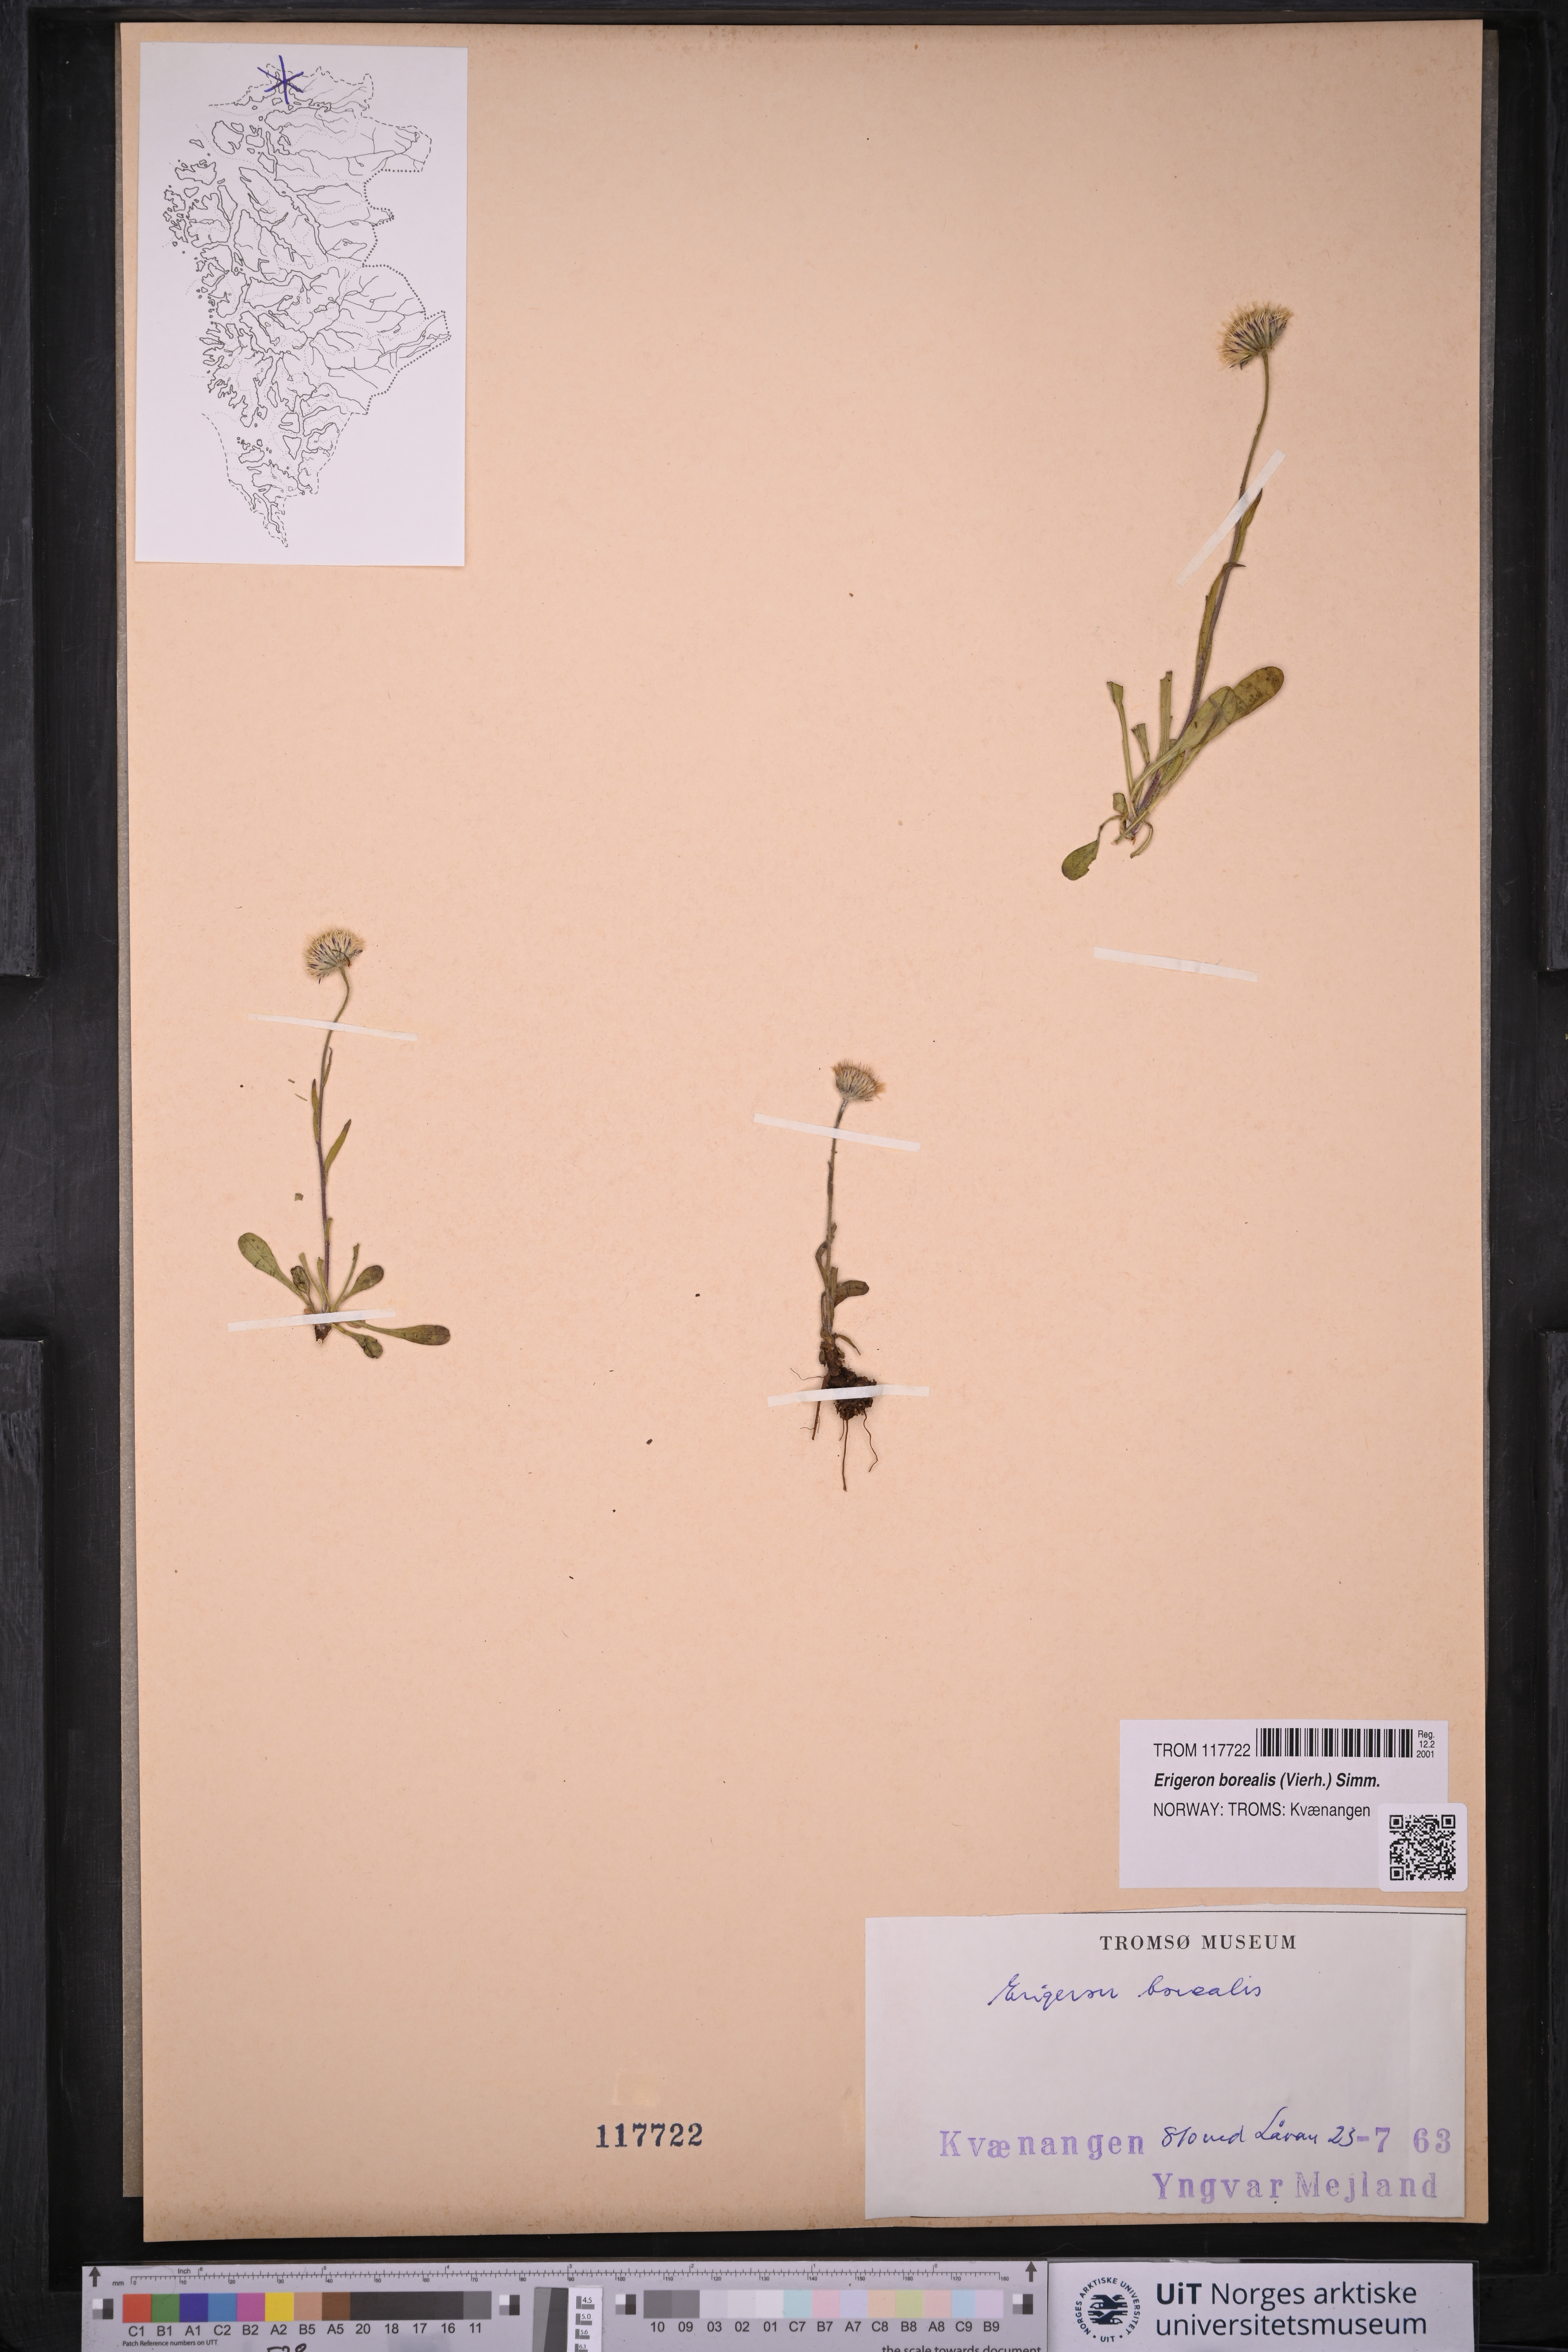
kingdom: Plantae
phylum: Tracheophyta
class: Magnoliopsida
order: Asterales
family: Asteraceae
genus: Erigeron
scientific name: Erigeron borealis
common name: Alpine fleabane
